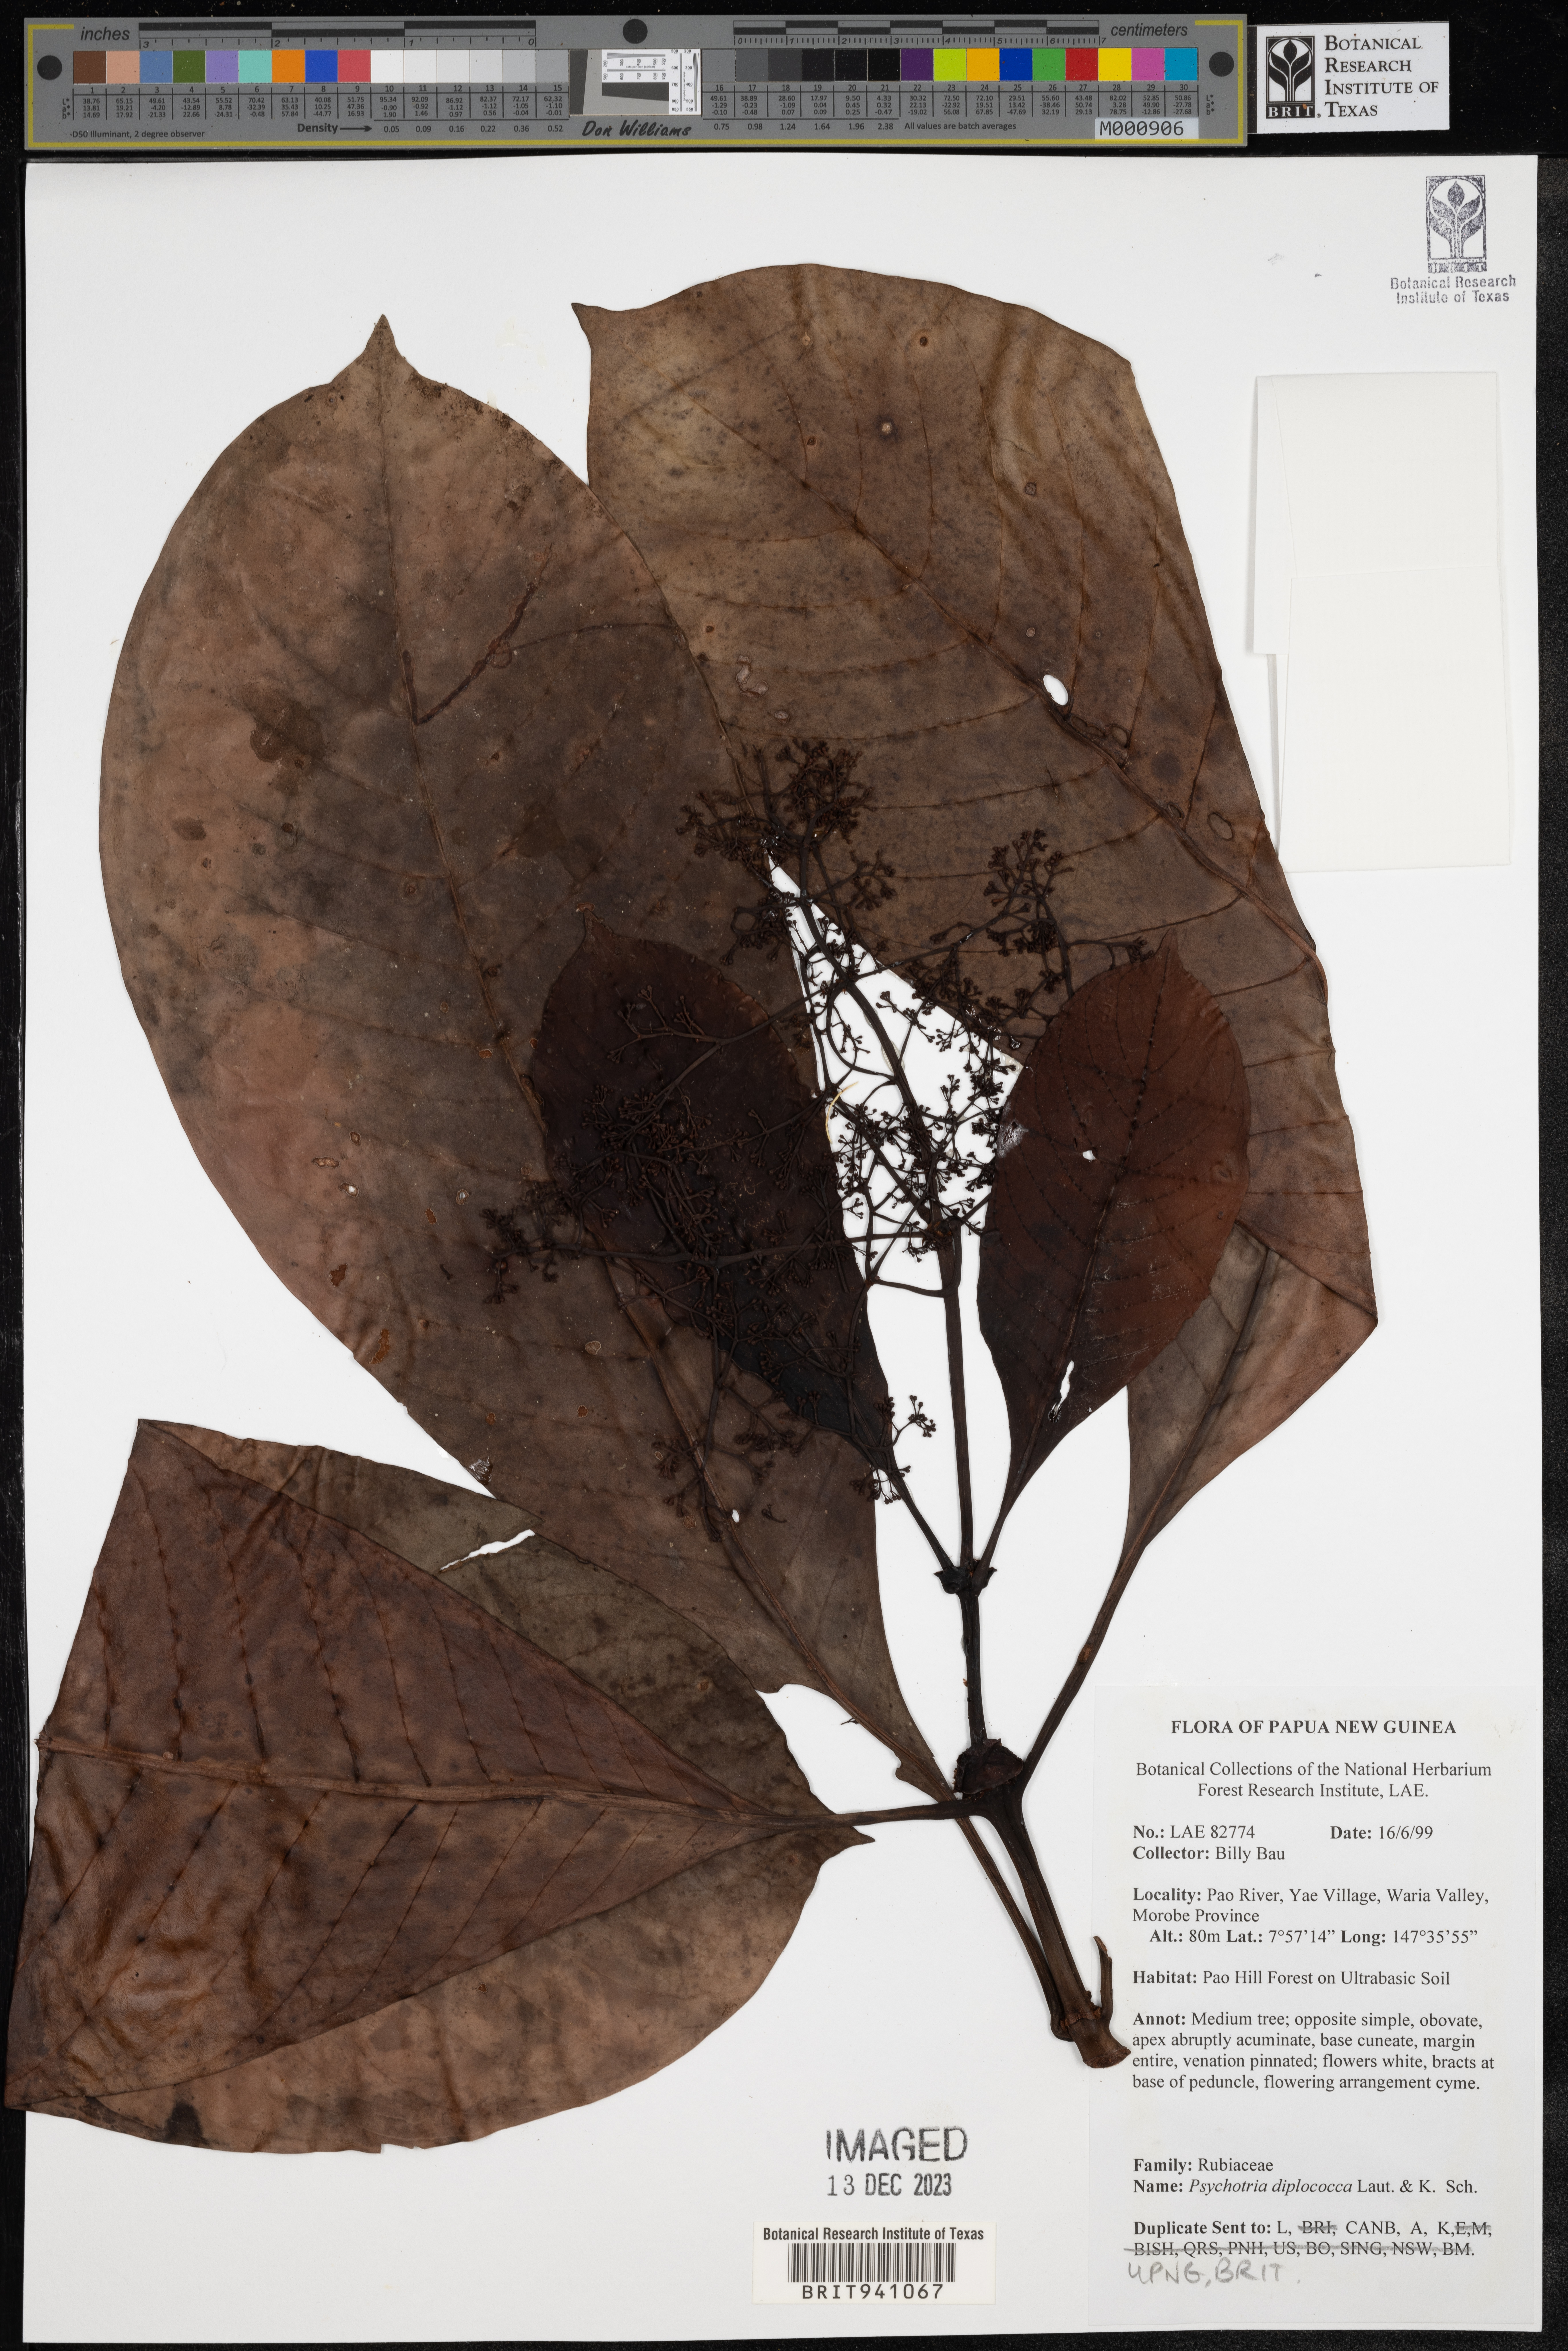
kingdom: Plantae
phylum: Tracheophyta
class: Magnoliopsida
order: Gentianales
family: Rubiaceae
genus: Psychotria
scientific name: Psychotria
